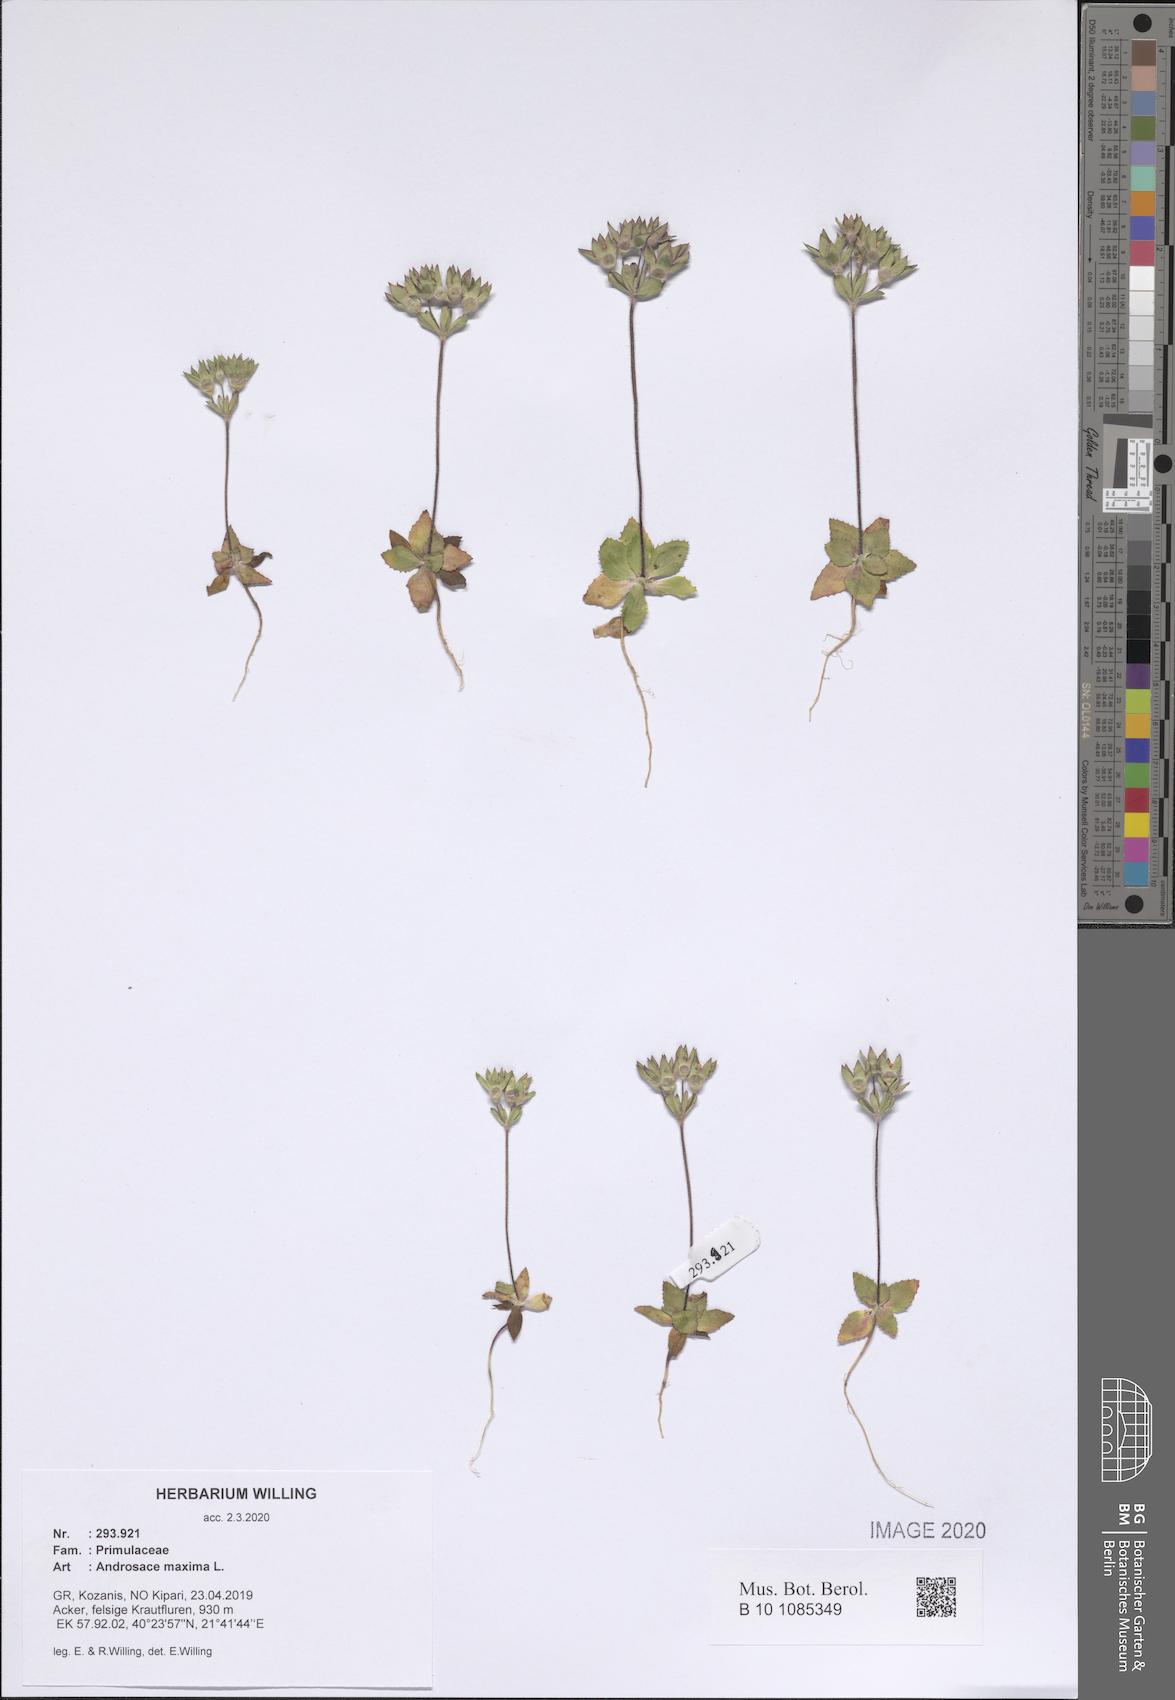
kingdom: Plantae
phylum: Tracheophyta
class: Magnoliopsida
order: Ericales
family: Primulaceae
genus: Androsace
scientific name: Androsace maxima
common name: Annual androsace
